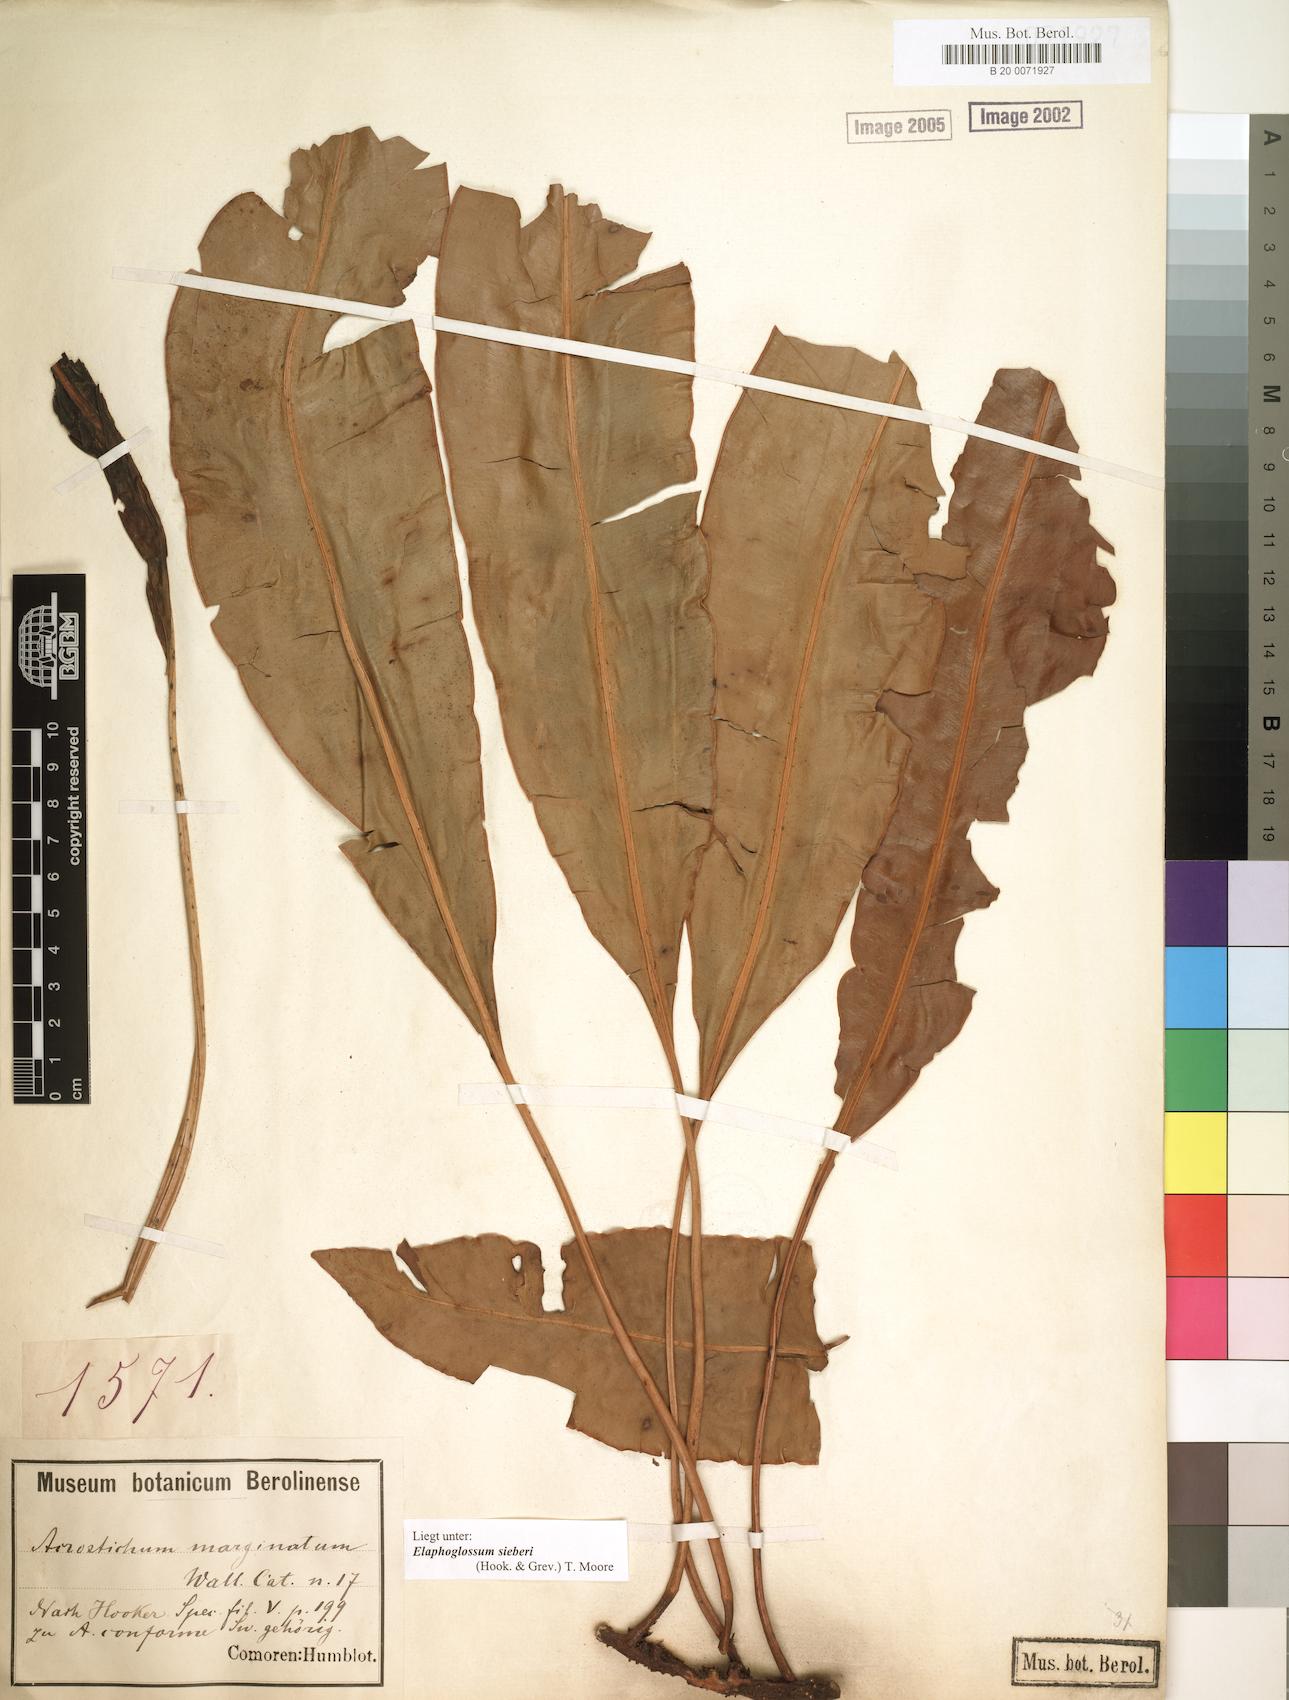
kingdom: Plantae
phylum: Tracheophyta
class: Polypodiopsida
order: Polypodiales
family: Dryopteridaceae
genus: Elaphoglossum
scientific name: Elaphoglossum sieberi
